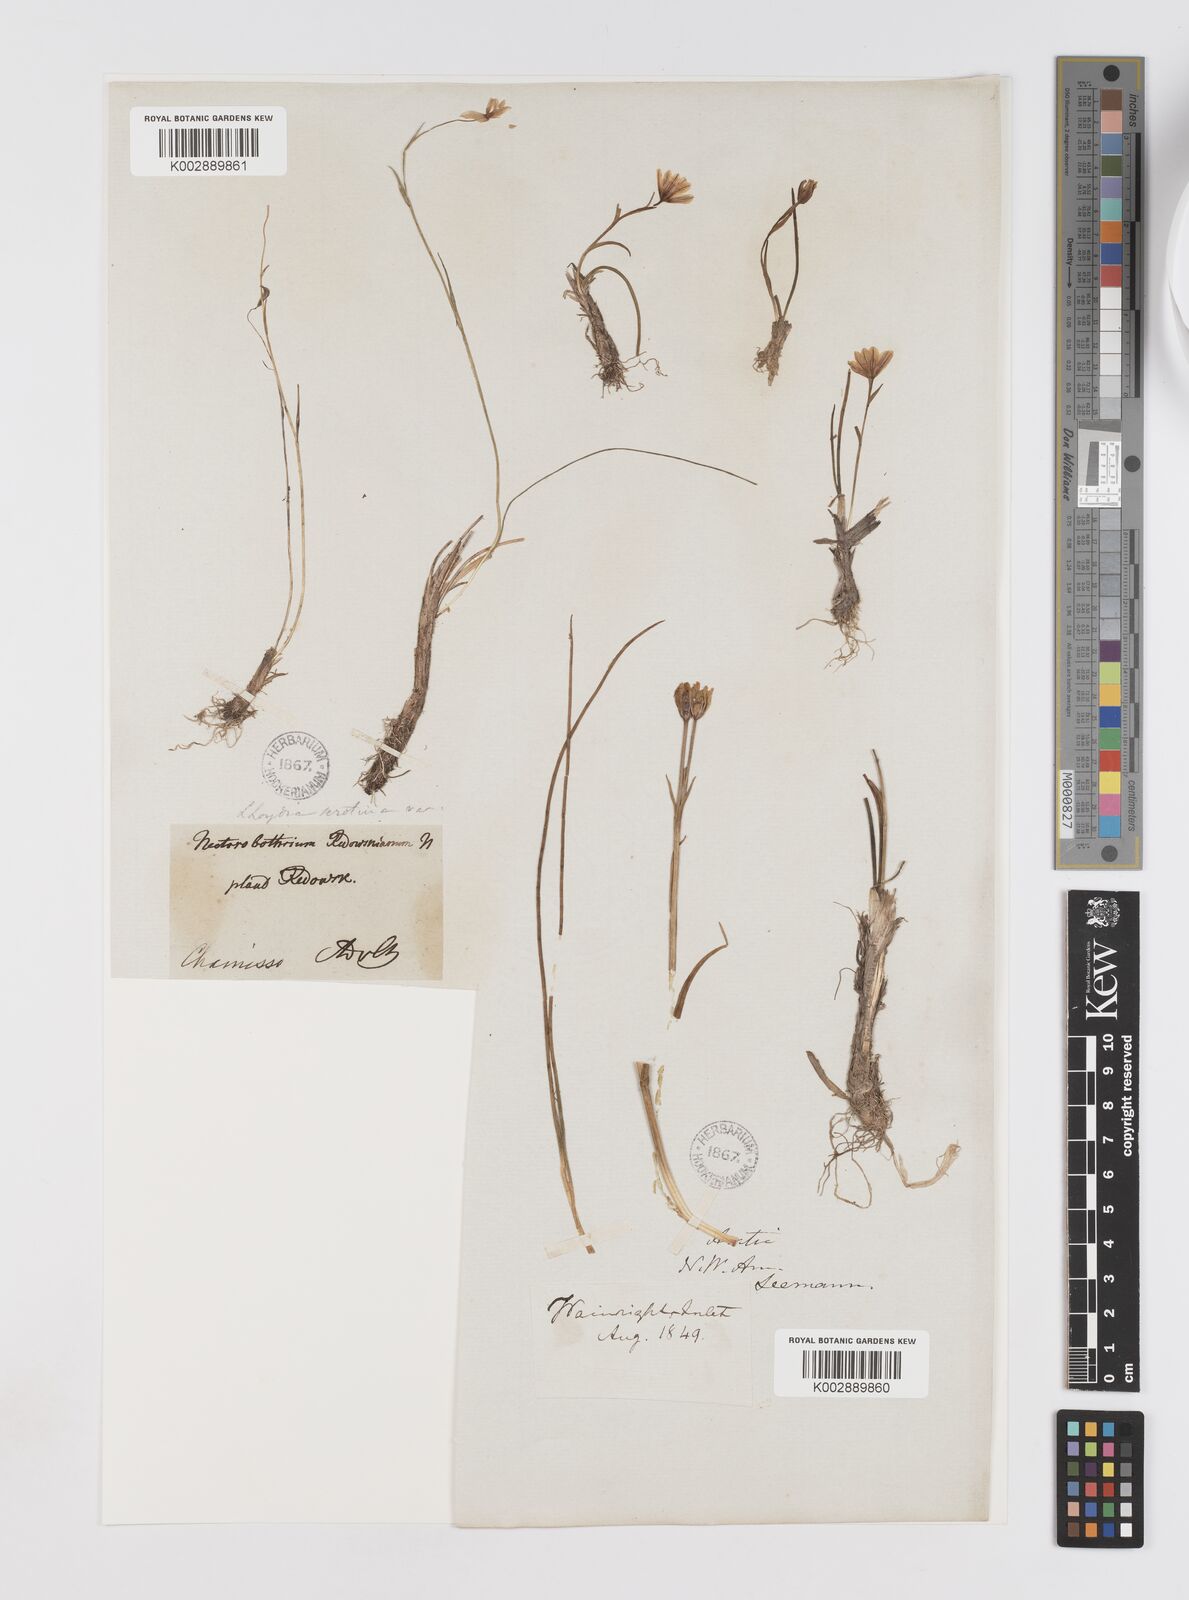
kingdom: Plantae
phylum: Tracheophyta
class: Liliopsida
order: Liliales
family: Liliaceae
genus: Gagea
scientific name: Gagea serotina
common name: Snowdon lily
